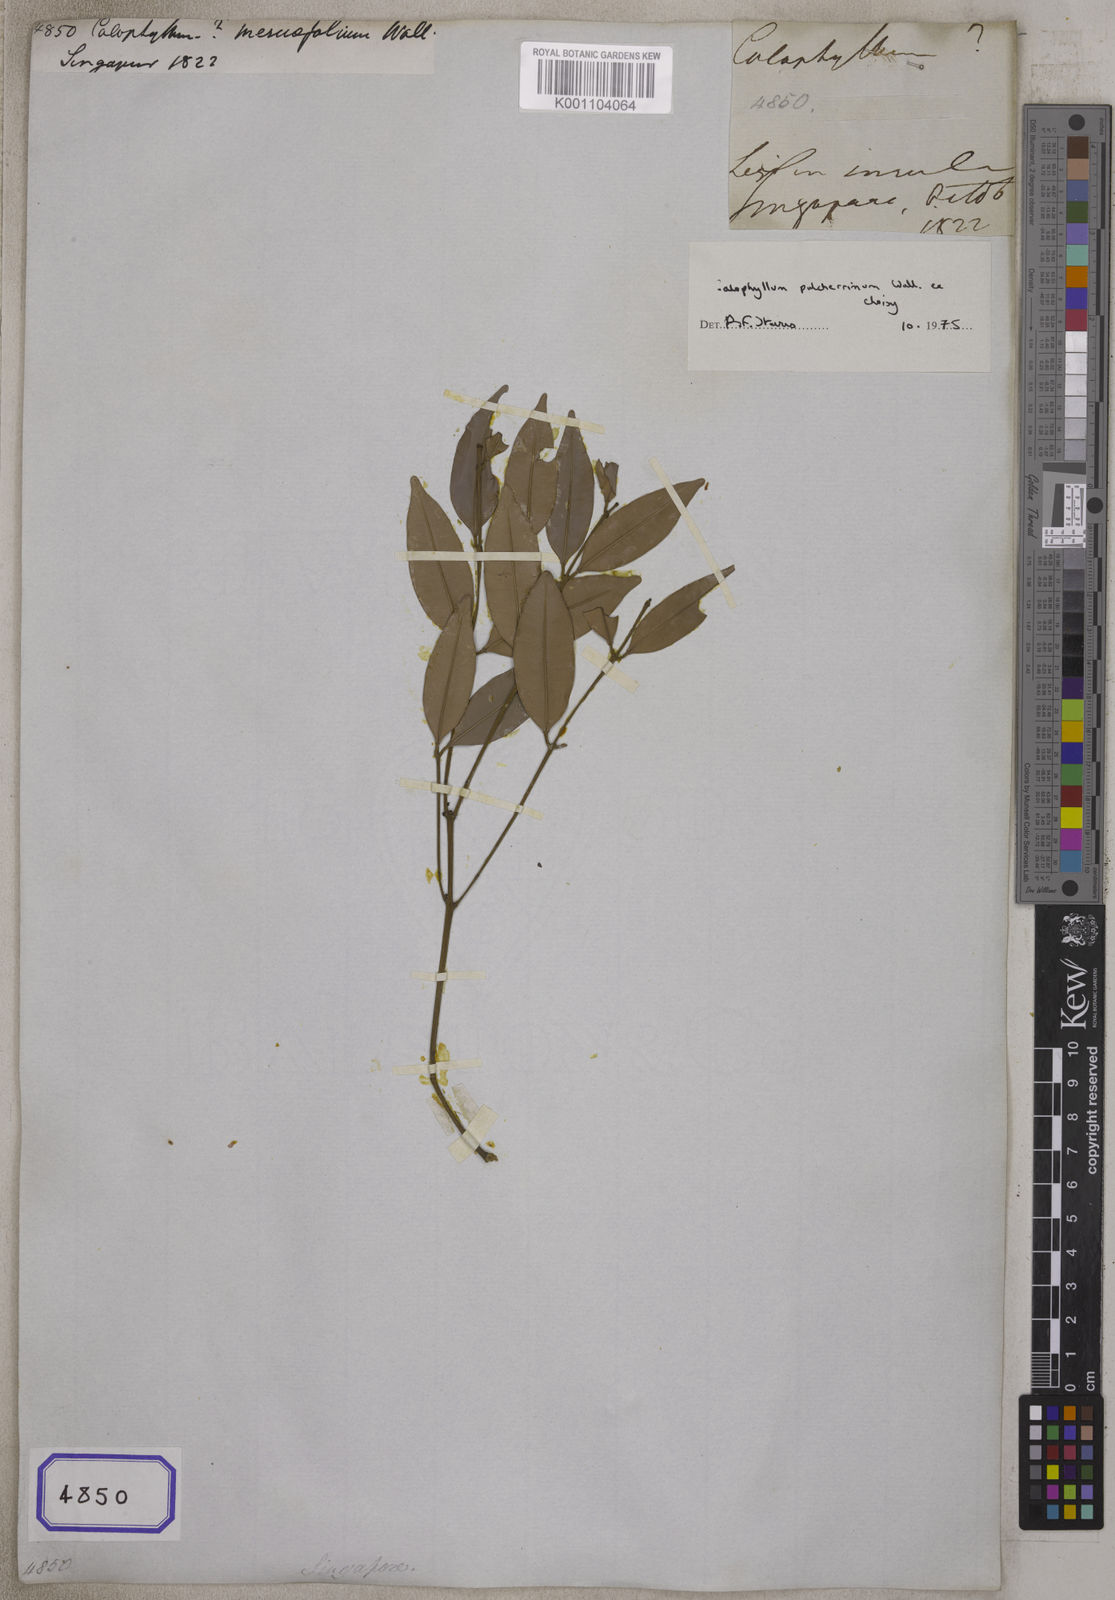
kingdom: Plantae
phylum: Tracheophyta
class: Magnoliopsida
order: Malpighiales
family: Calophyllaceae
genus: Calophyllum
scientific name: Calophyllum pulcherrimum
